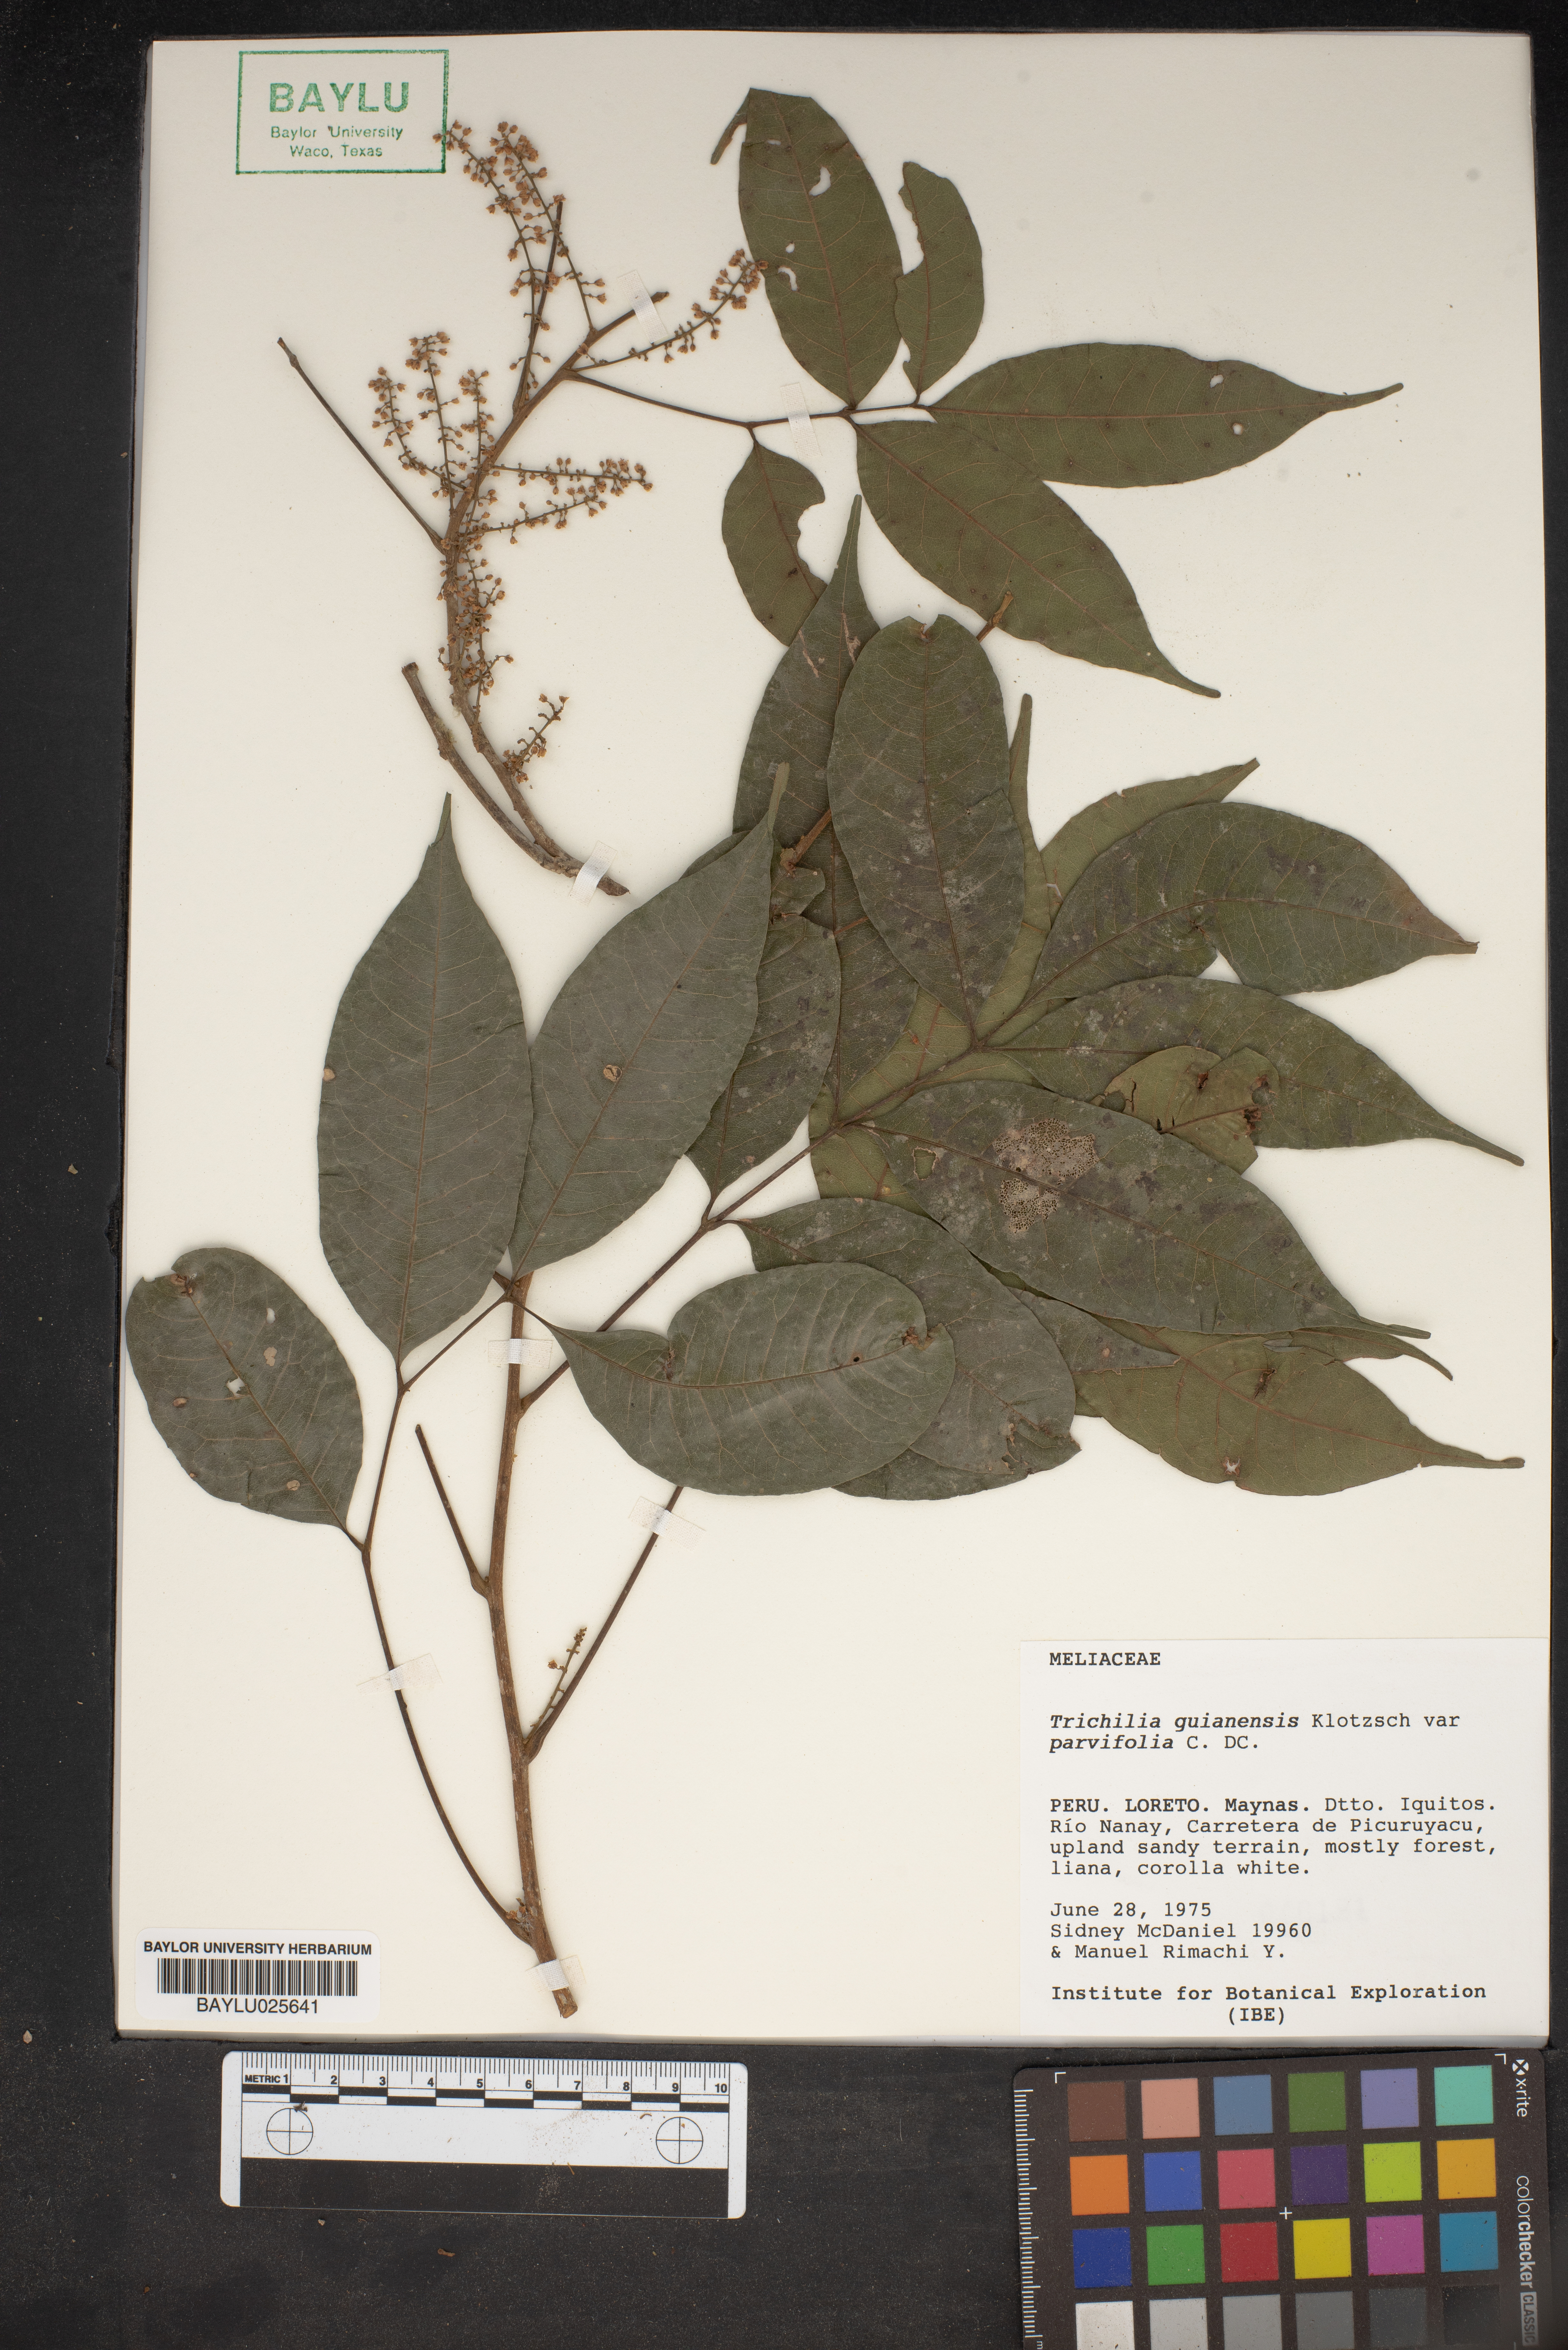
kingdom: Plantae
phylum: Tracheophyta
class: Magnoliopsida
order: Sapindales
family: Meliaceae
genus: Trichilia
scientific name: Trichilia trifolia
